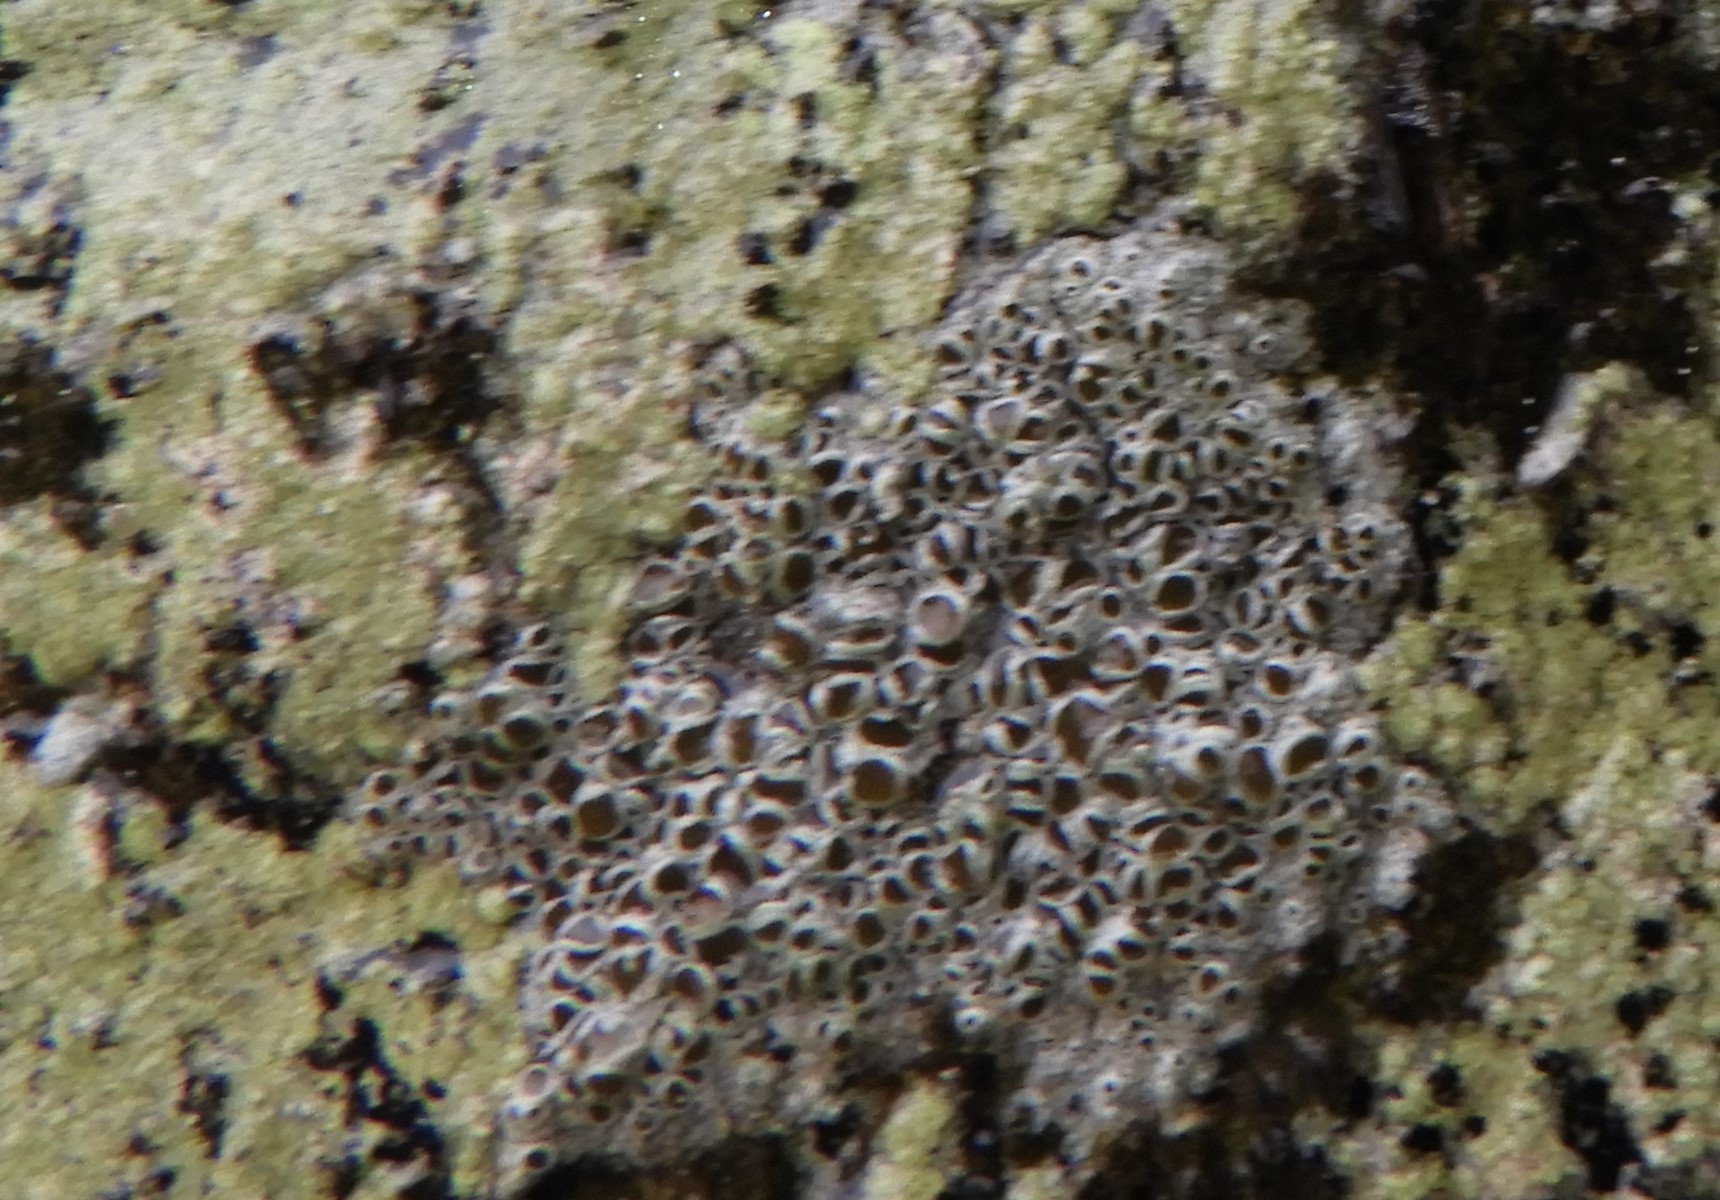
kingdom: Fungi
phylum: Ascomycota
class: Lecanoromycetes
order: Lecanorales
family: Lecanoraceae
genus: Lecanora
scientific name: Lecanora chlarotera
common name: brun kantskivelav
